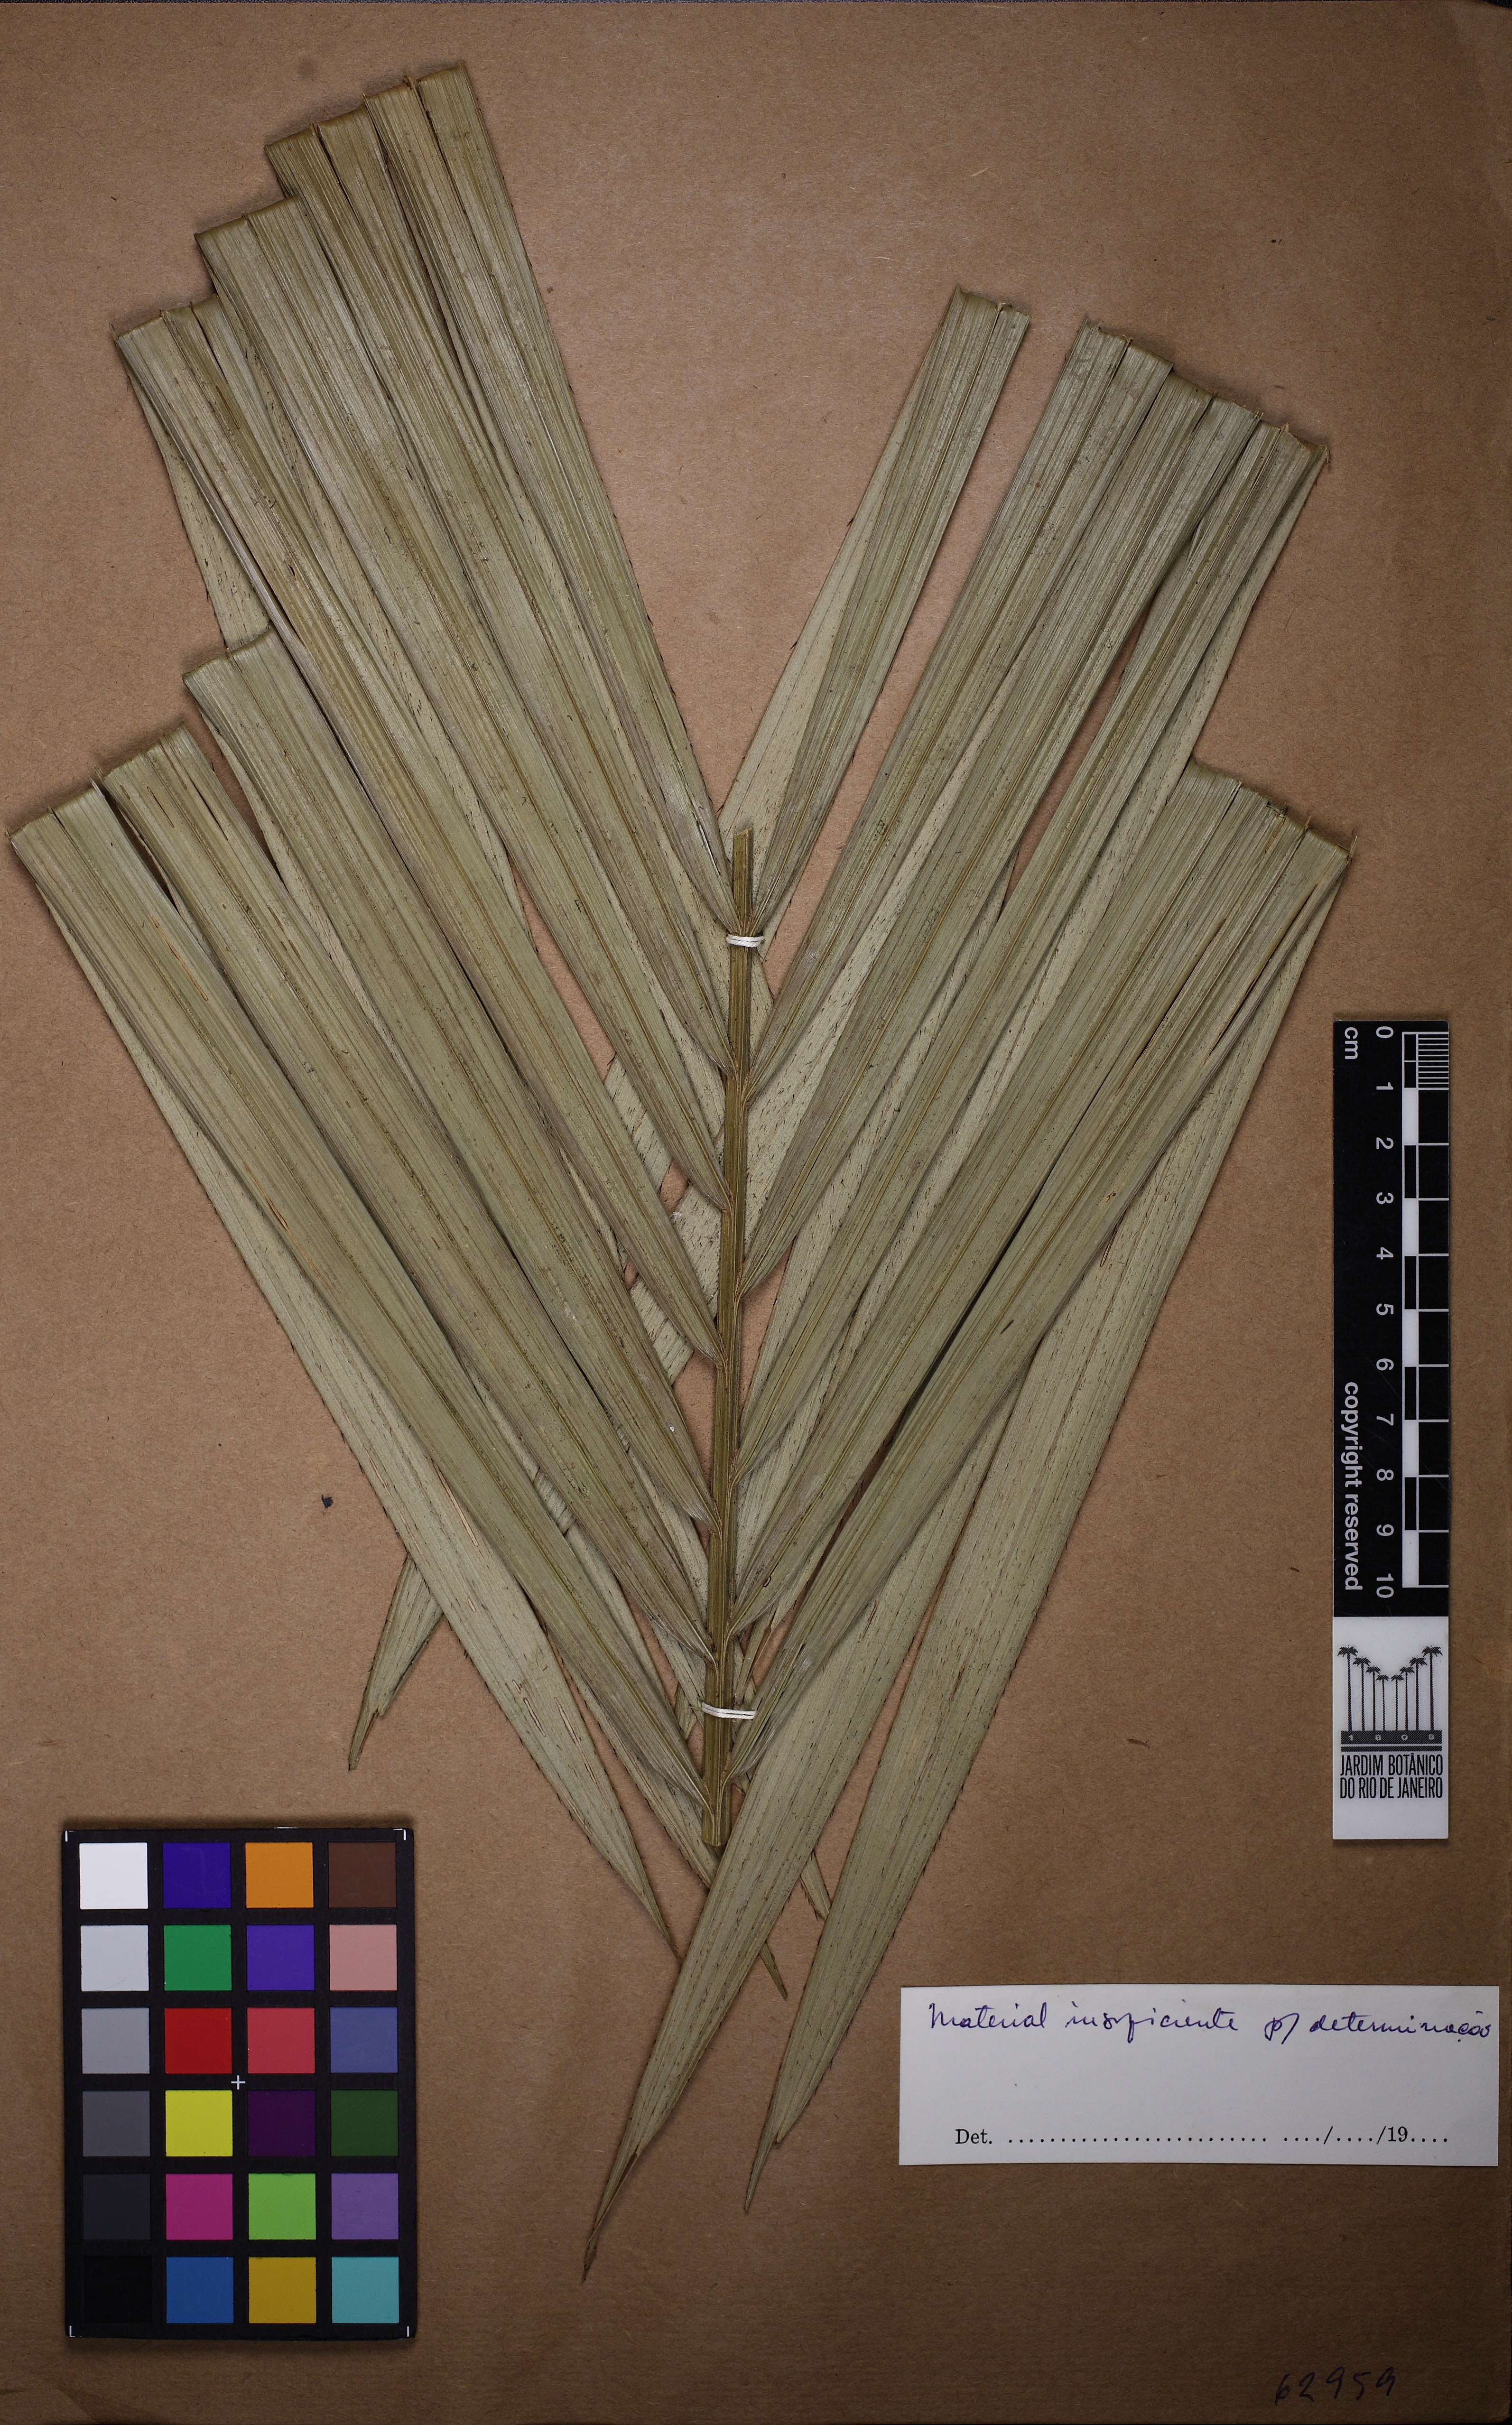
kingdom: Plantae
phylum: Tracheophyta
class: Liliopsida
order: Arecales
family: Arecaceae
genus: Bactris
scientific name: Bactris vulgaris
